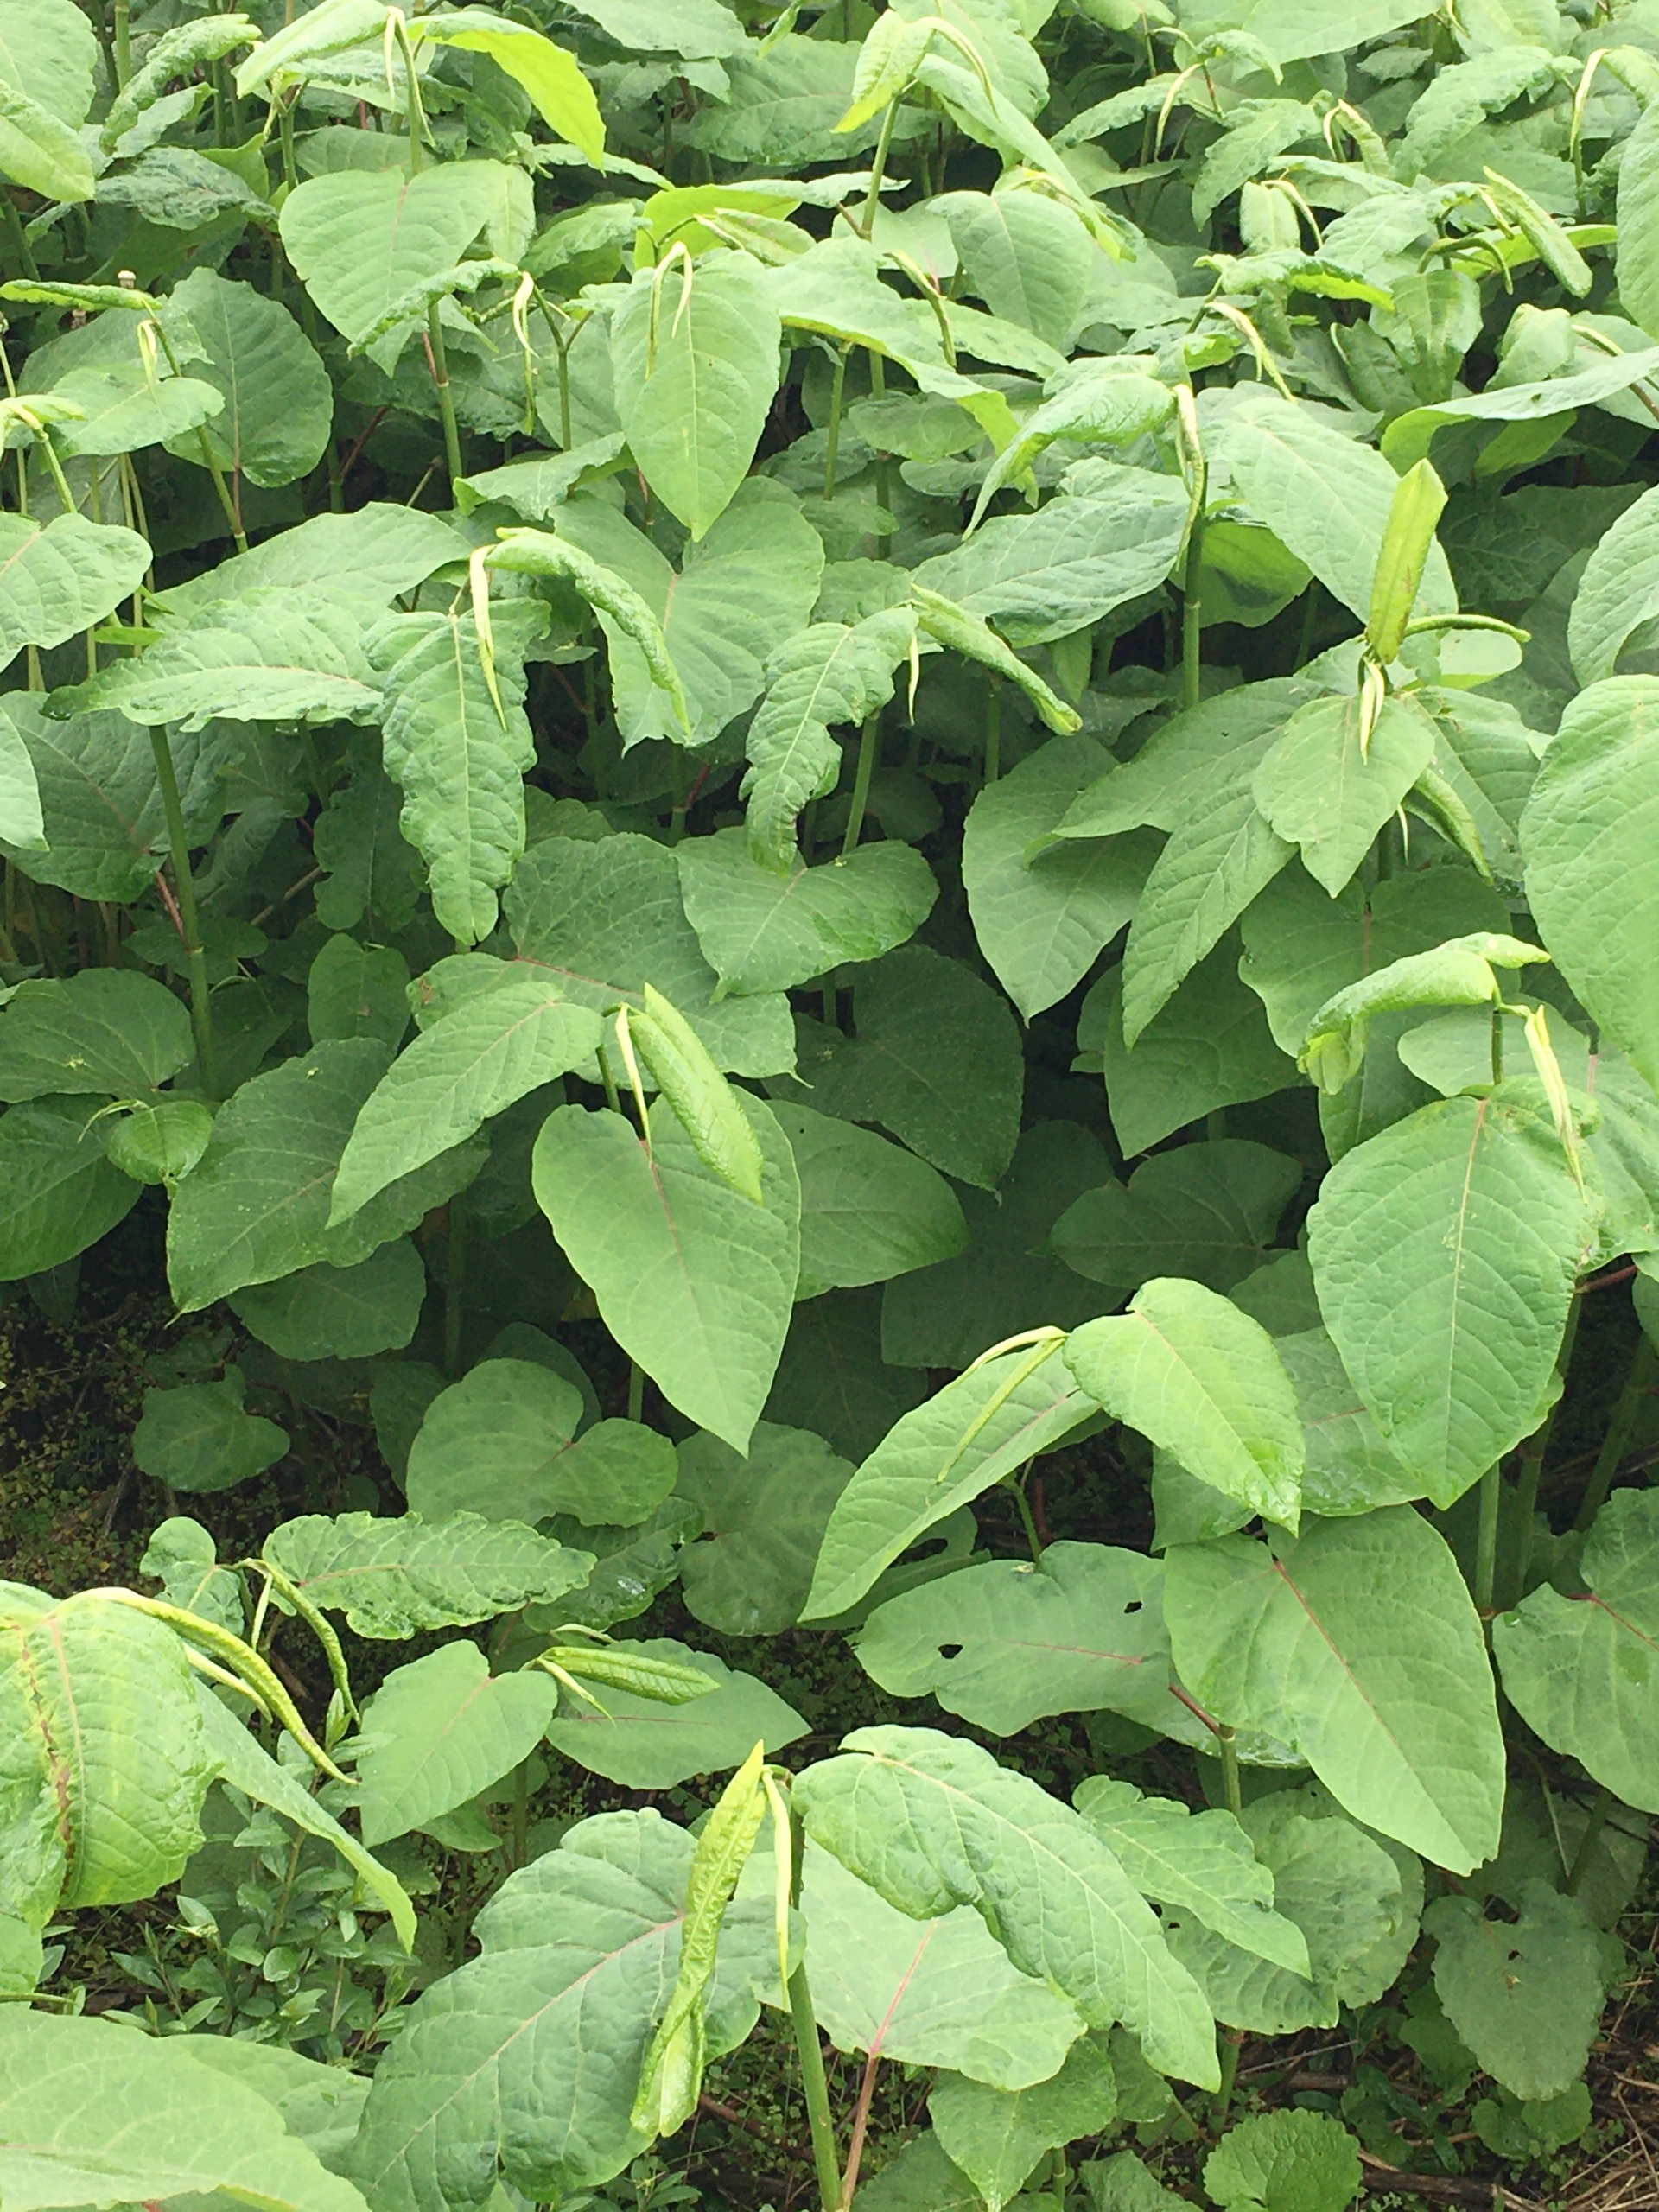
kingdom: Plantae
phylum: Tracheophyta
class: Magnoliopsida
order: Caryophyllales
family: Polygonaceae
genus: Reynoutria
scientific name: Reynoutria sachalinensis
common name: Kæmpe-pileurt
